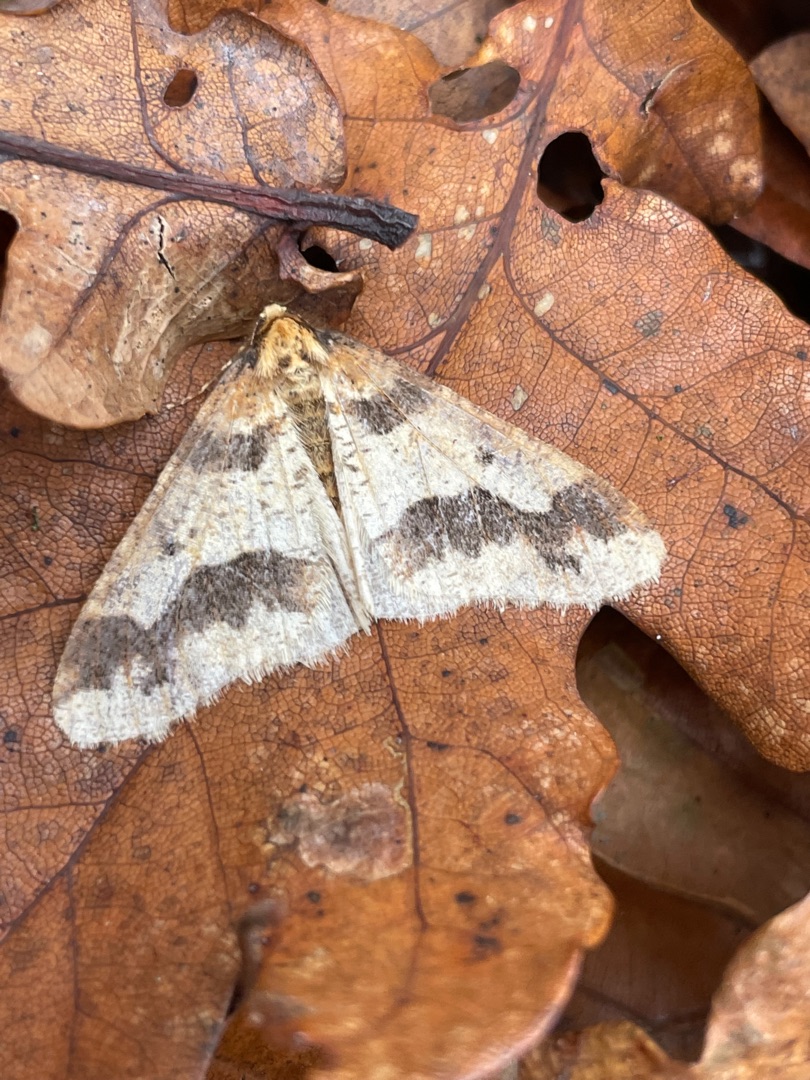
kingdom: Animalia
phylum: Arthropoda
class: Insecta
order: Lepidoptera
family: Geometridae
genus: Erannis
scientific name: Erannis defoliaria
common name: Stor frostmåler
